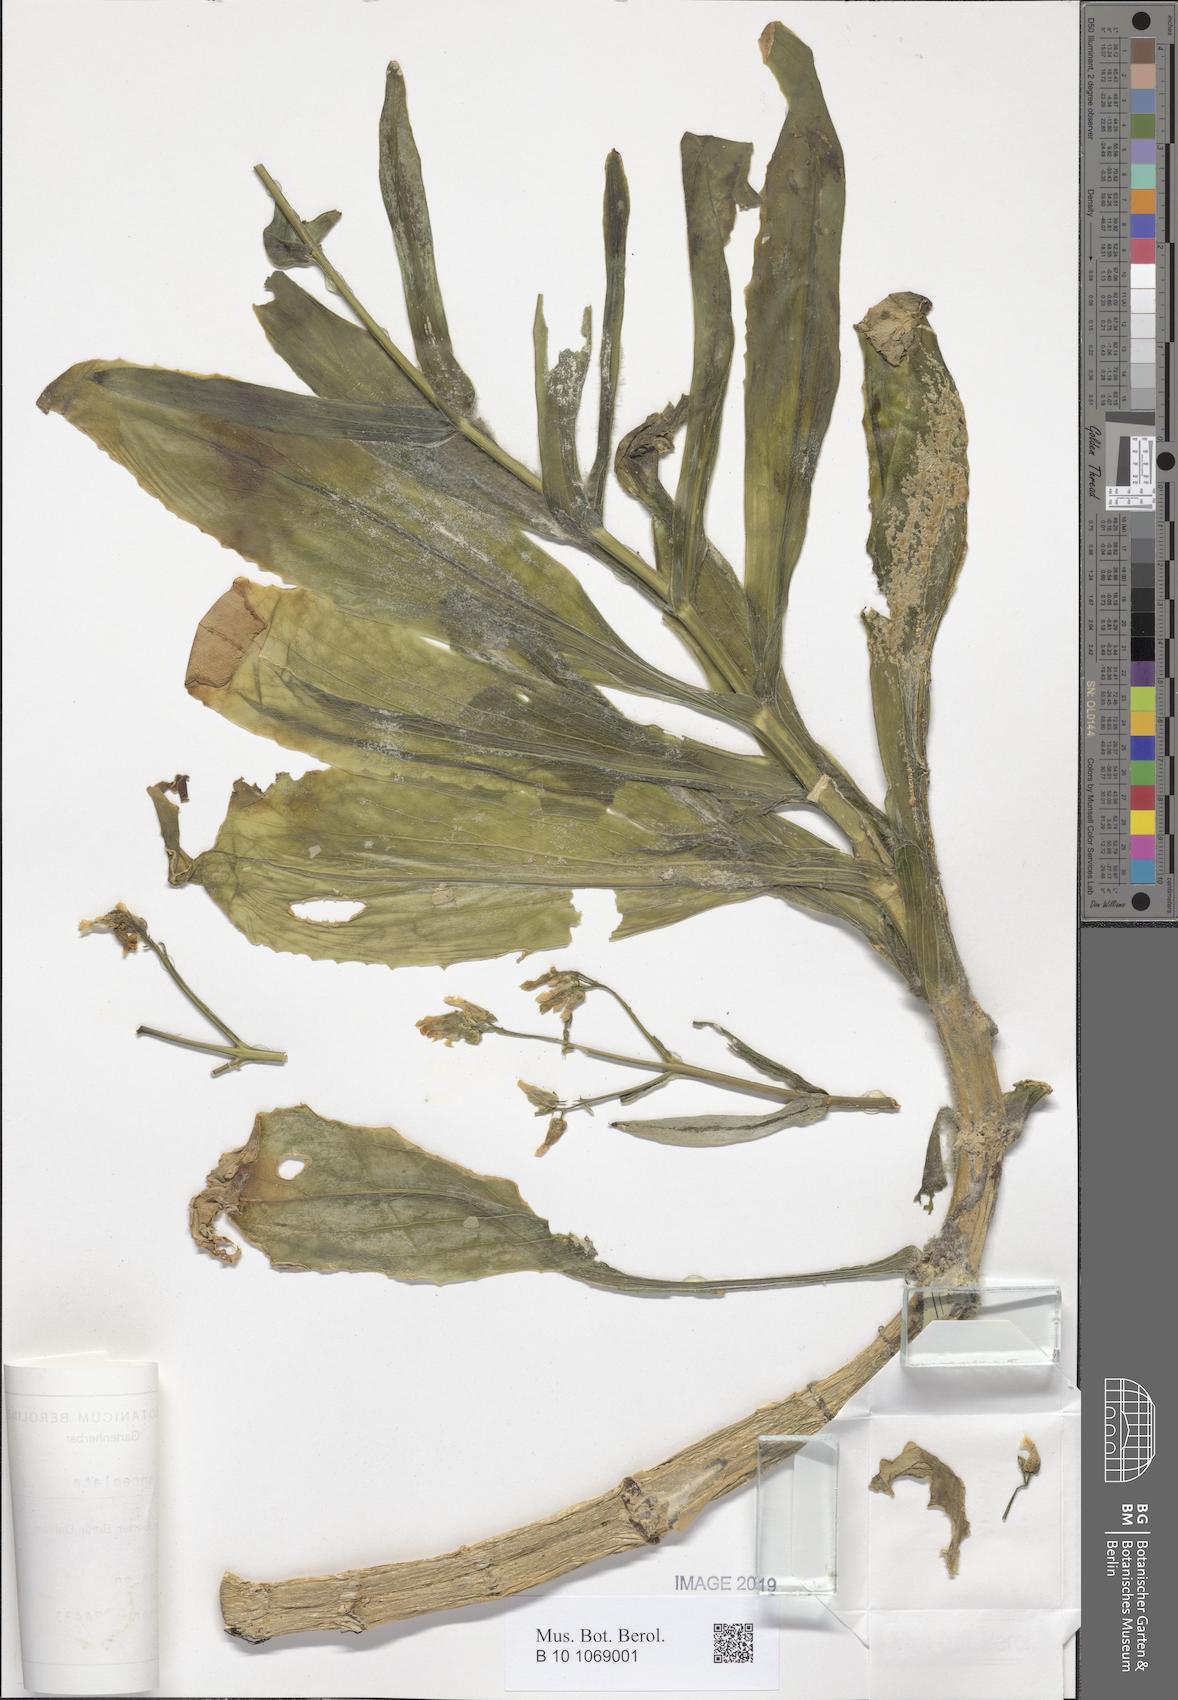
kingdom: Plantae
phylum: Tracheophyta
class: Magnoliopsida
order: Saxifragales
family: Crassulaceae
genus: Kalanchoe
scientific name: Kalanchoe yemensis
